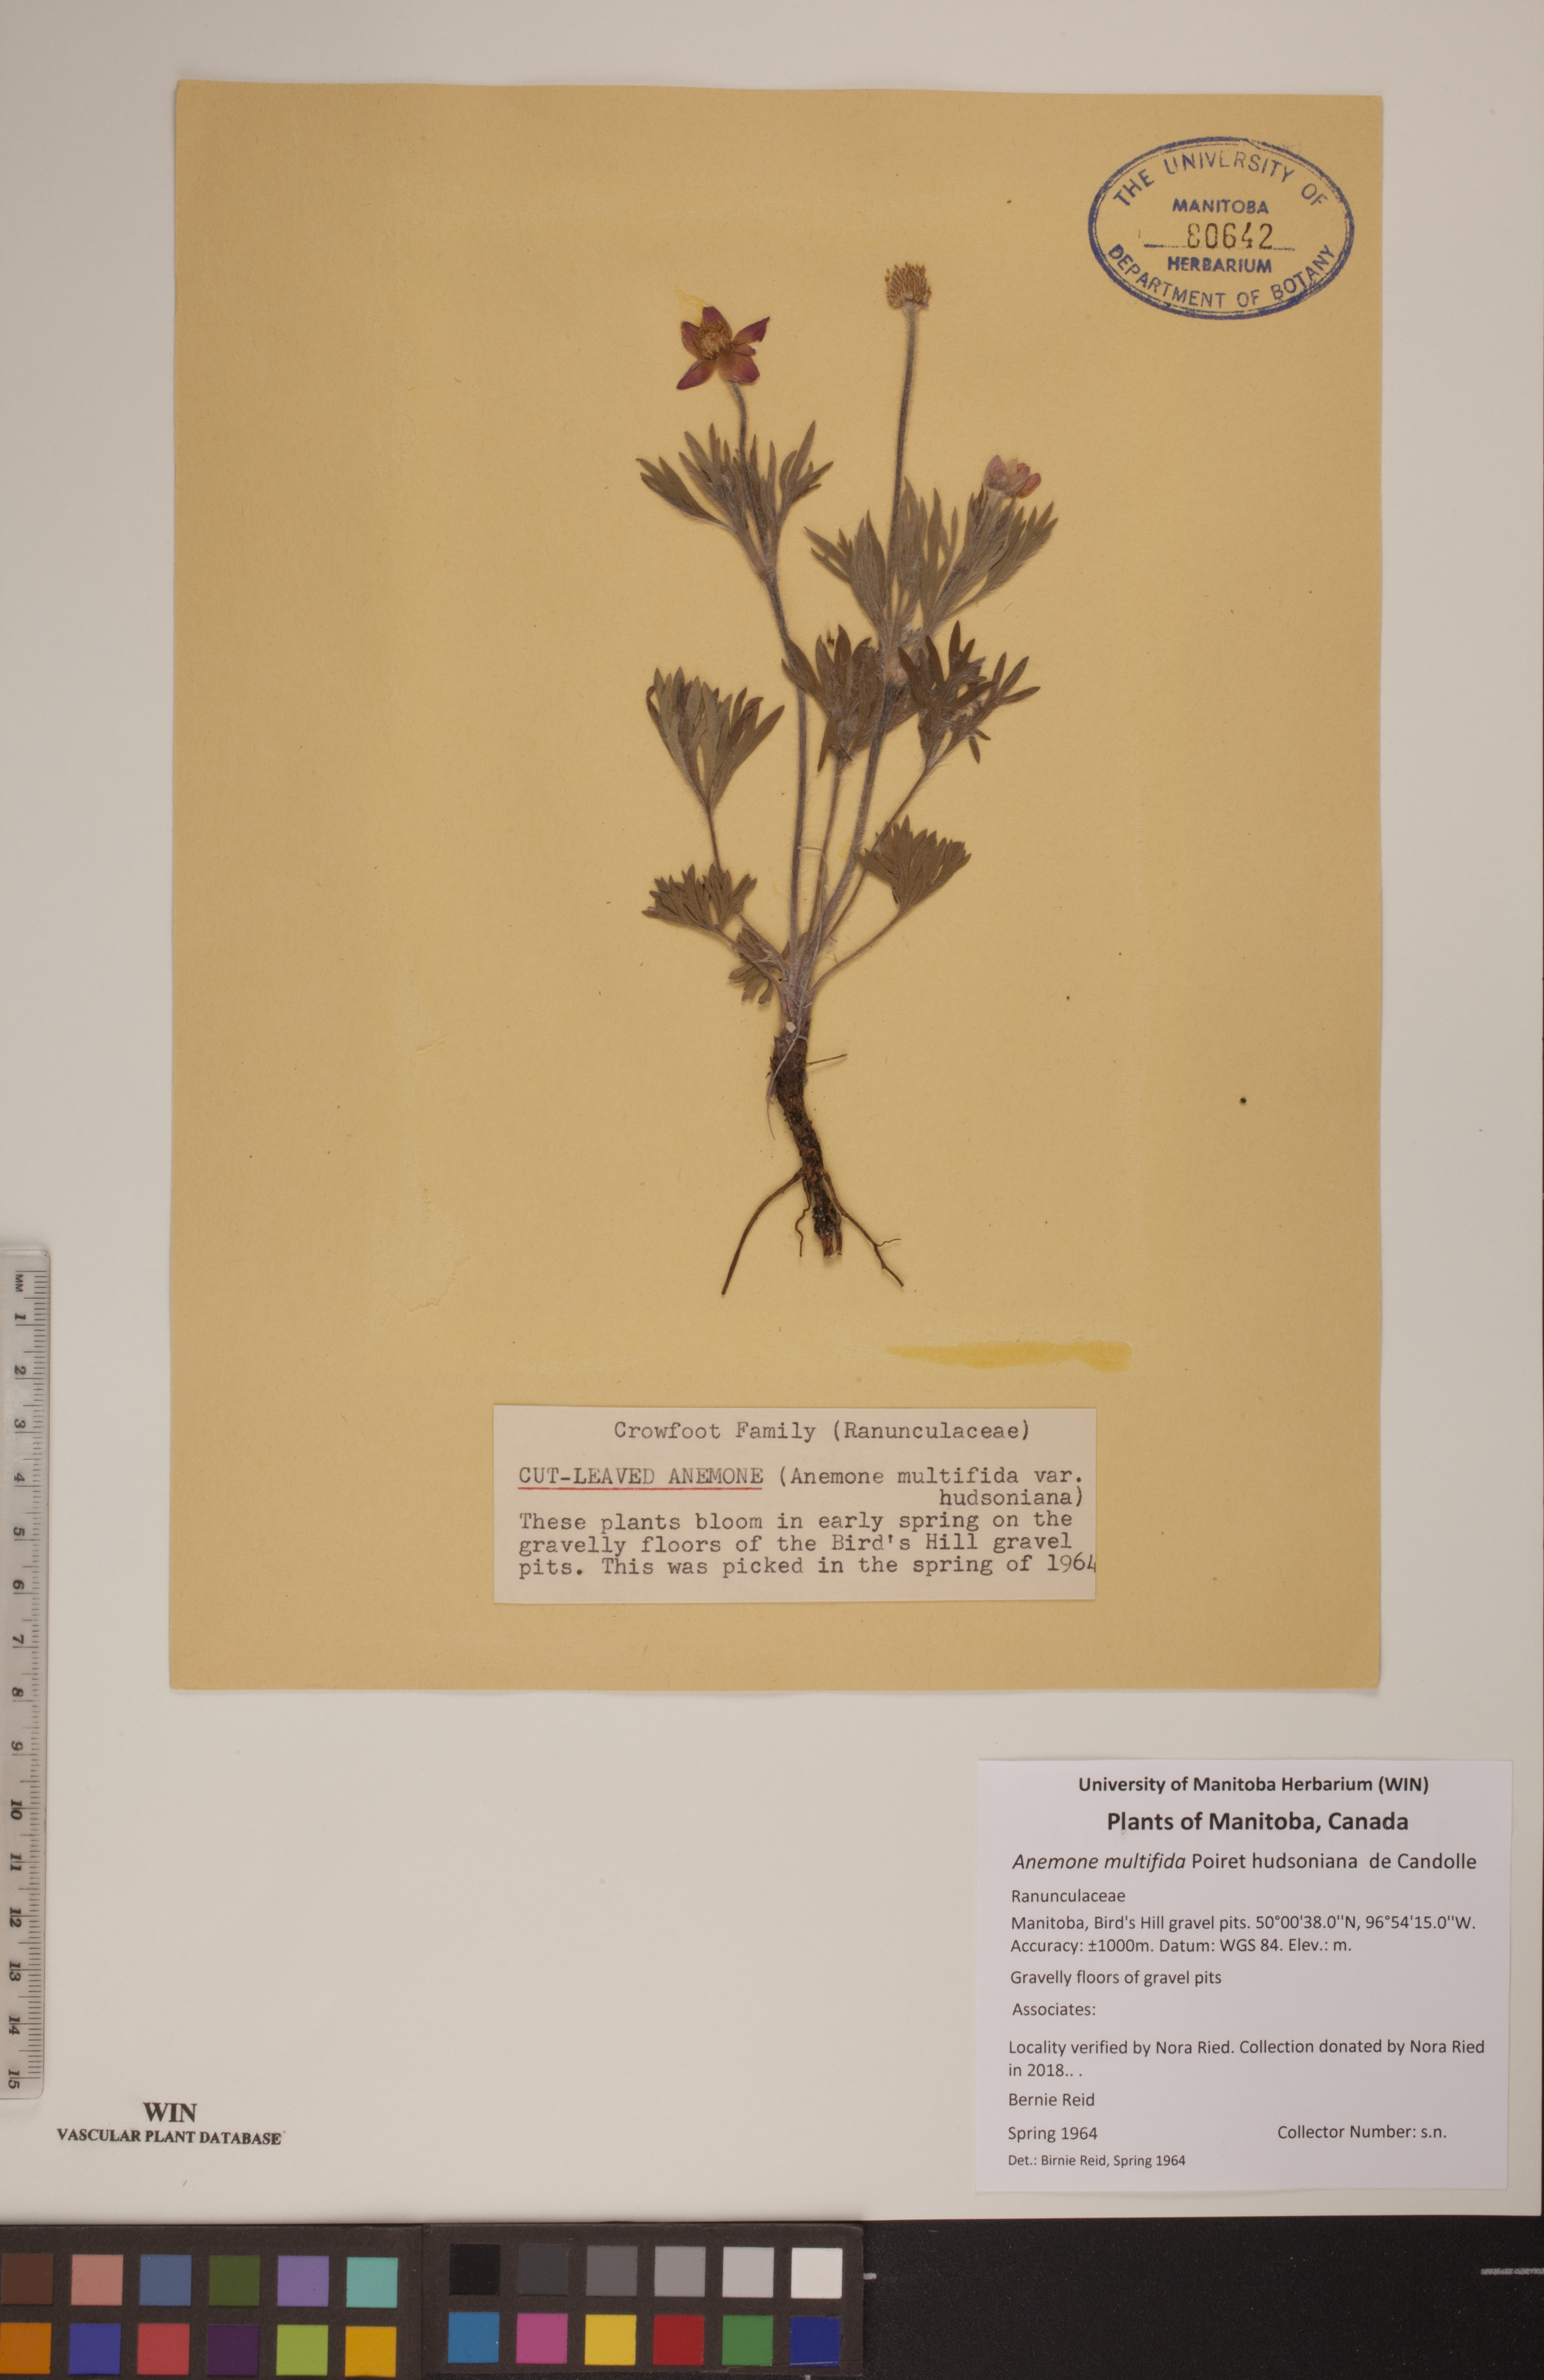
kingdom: Plantae
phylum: Tracheophyta
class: Magnoliopsida
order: Ranunculales
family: Ranunculaceae
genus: Anemone
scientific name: Anemone multifida
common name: Bird's-foot anemone
